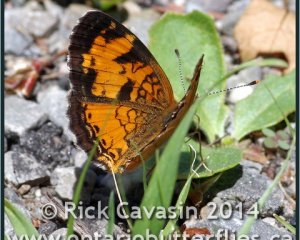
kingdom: Animalia
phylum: Arthropoda
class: Insecta
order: Lepidoptera
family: Nymphalidae
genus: Phyciodes
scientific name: Phyciodes tharos
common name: Northern Crescent
